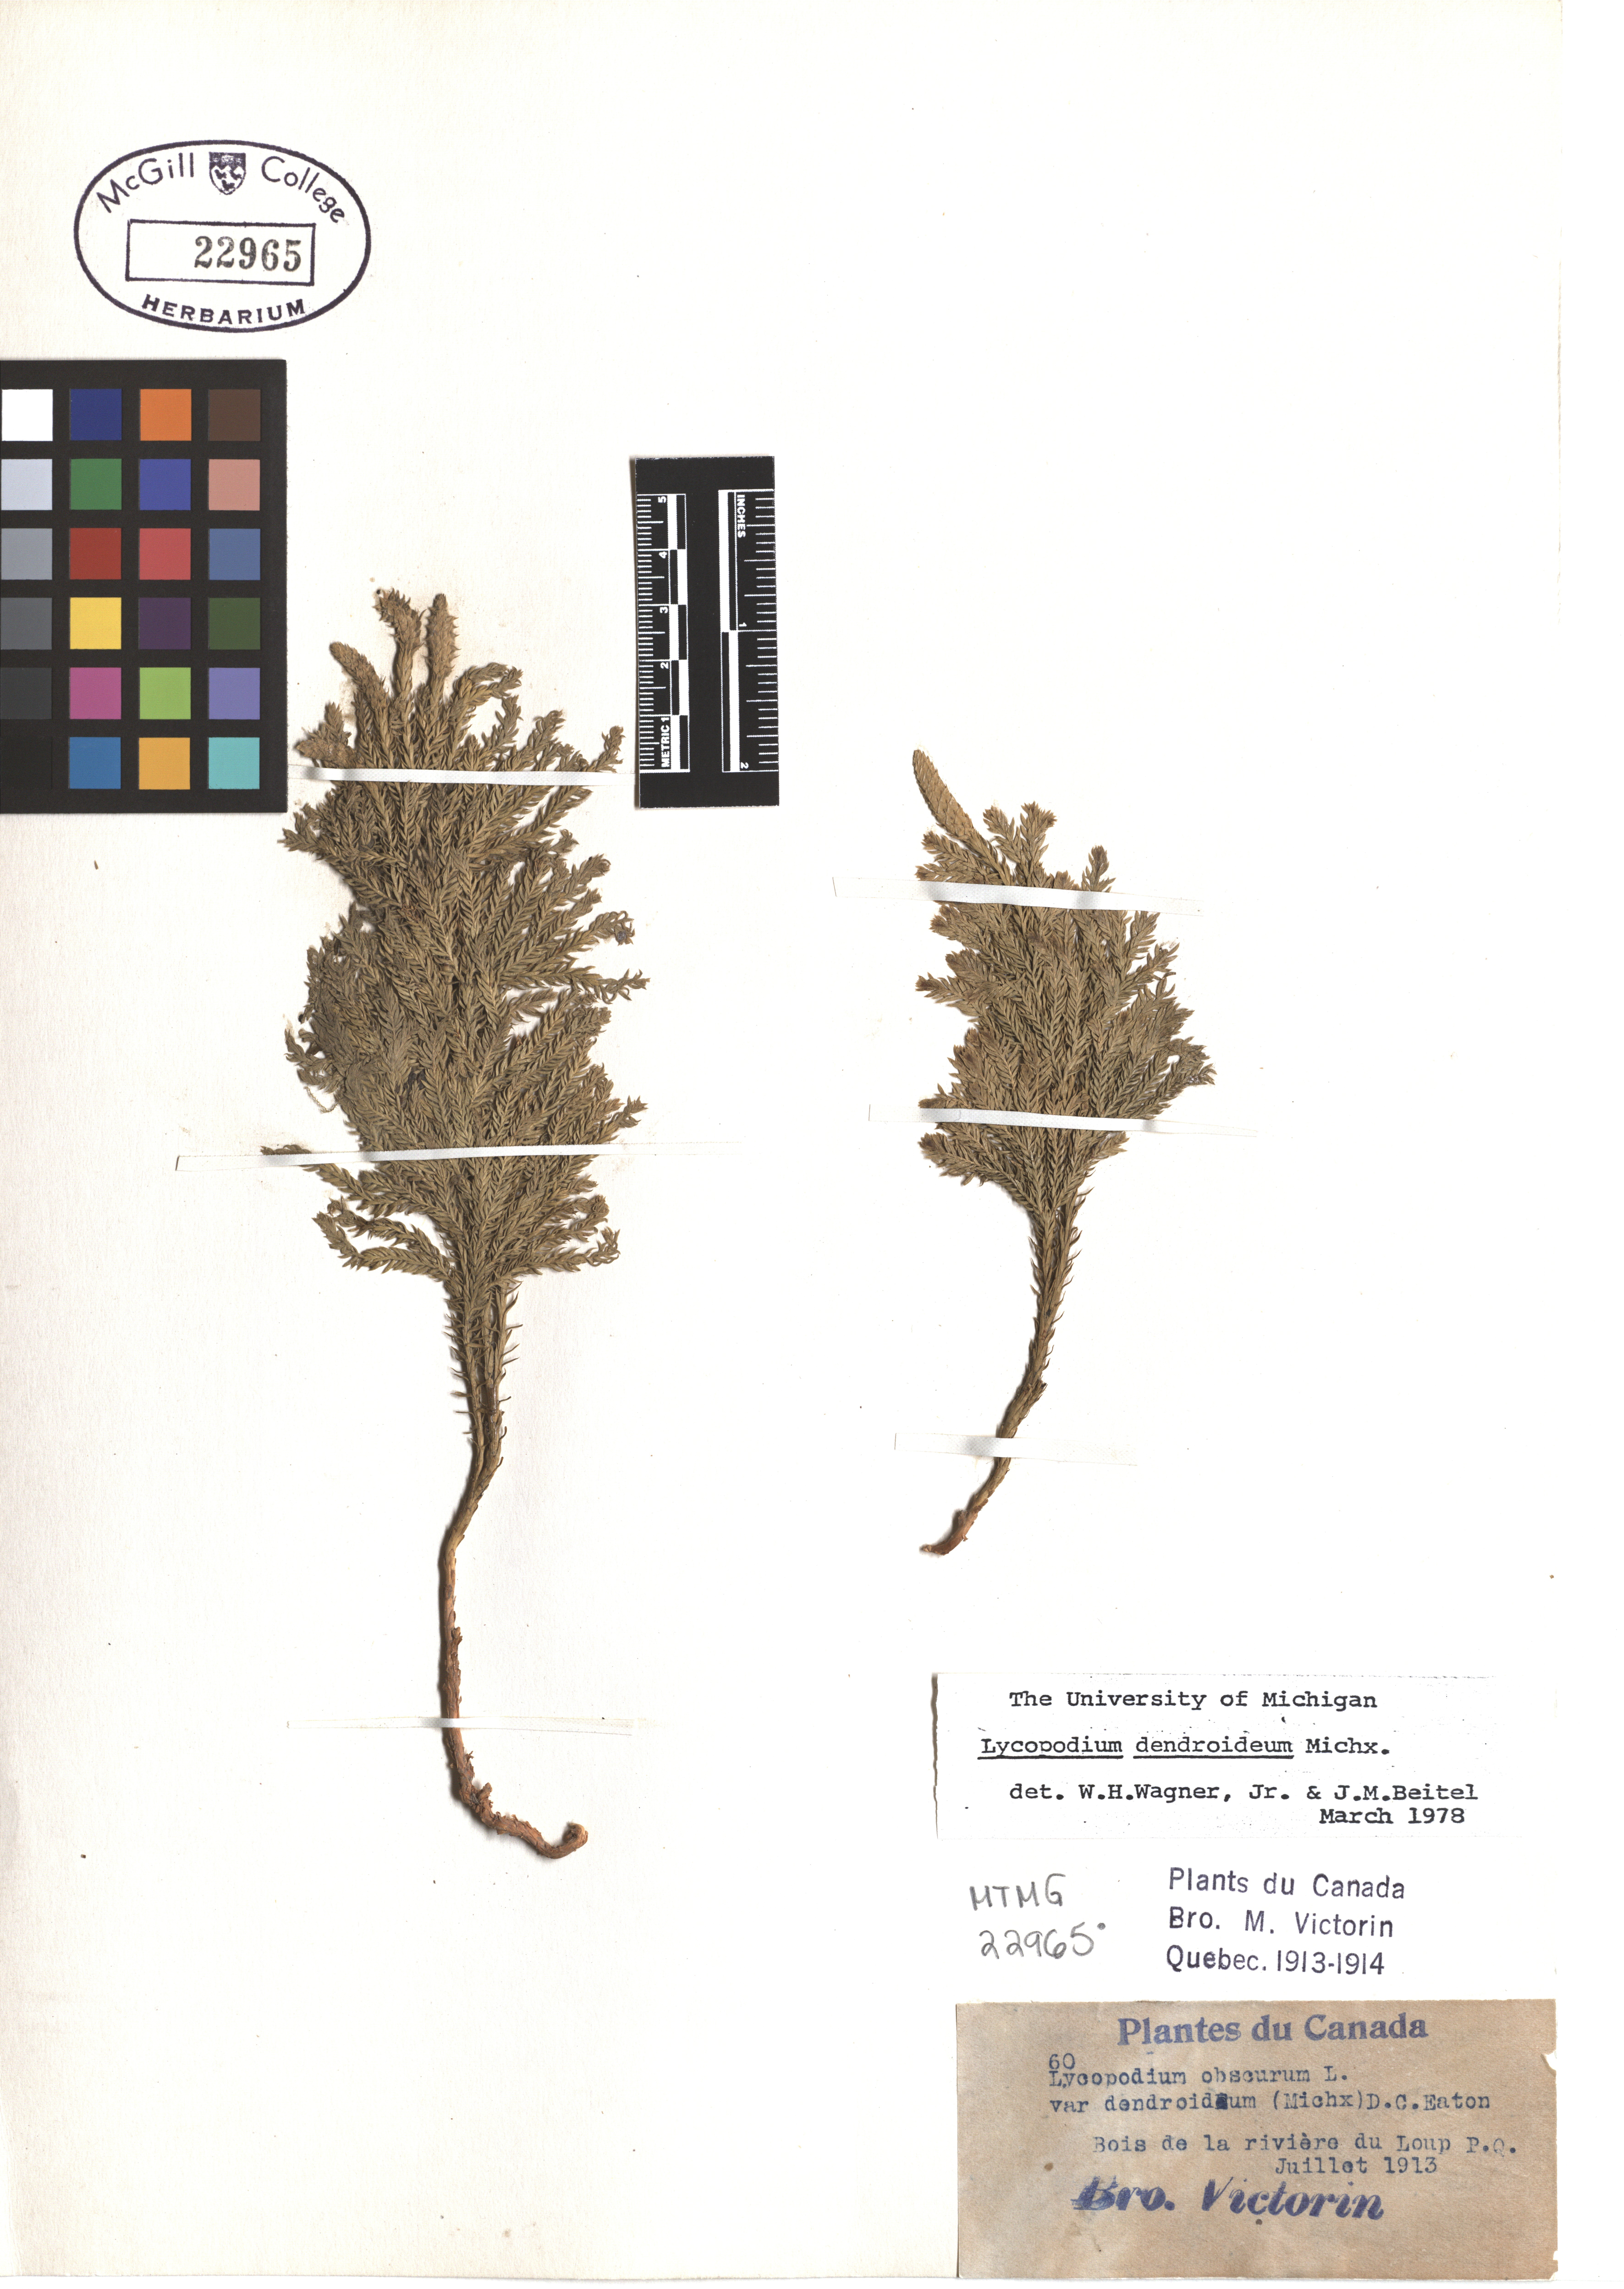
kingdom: Plantae
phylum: Tracheophyta
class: Lycopodiopsida
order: Lycopodiales
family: Lycopodiaceae
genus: Dendrolycopodium
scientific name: Dendrolycopodium dendroideum
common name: Northern tree-clubmoss
